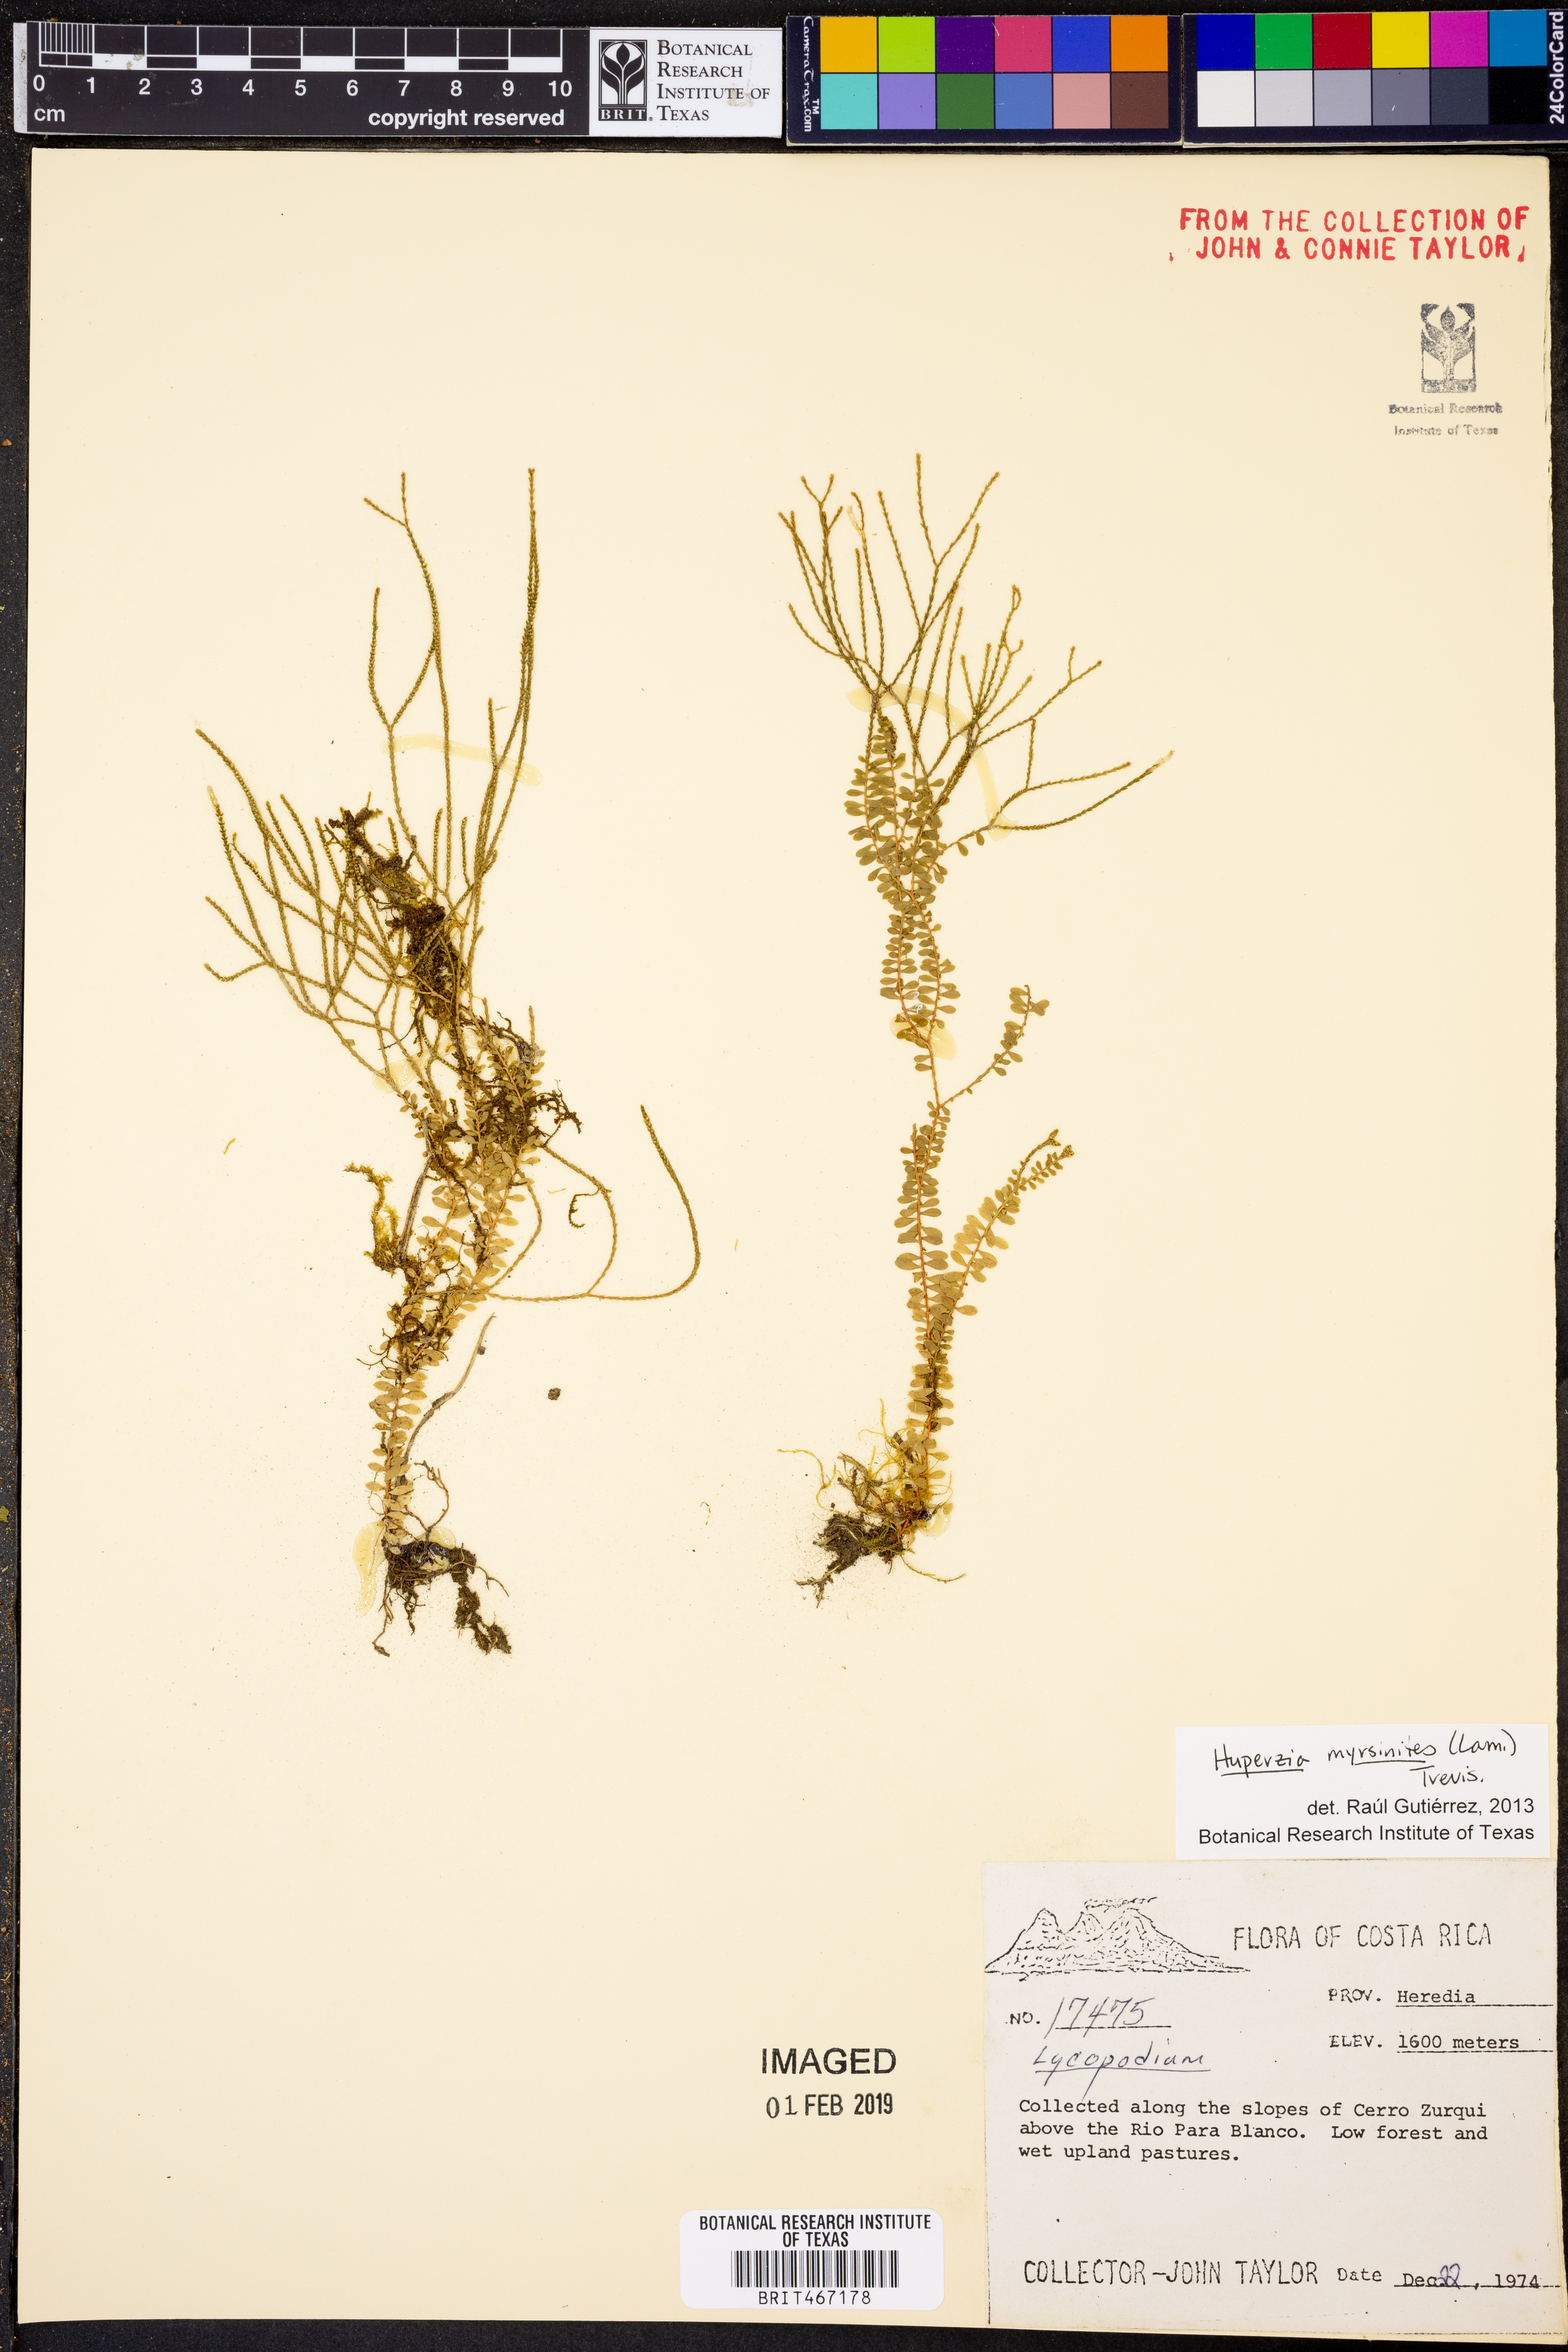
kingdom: Plantae
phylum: Tracheophyta
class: Lycopodiopsida
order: Lycopodiales
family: Lycopodiaceae
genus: Phlegmariurus
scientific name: Phlegmariurus myrsinites
